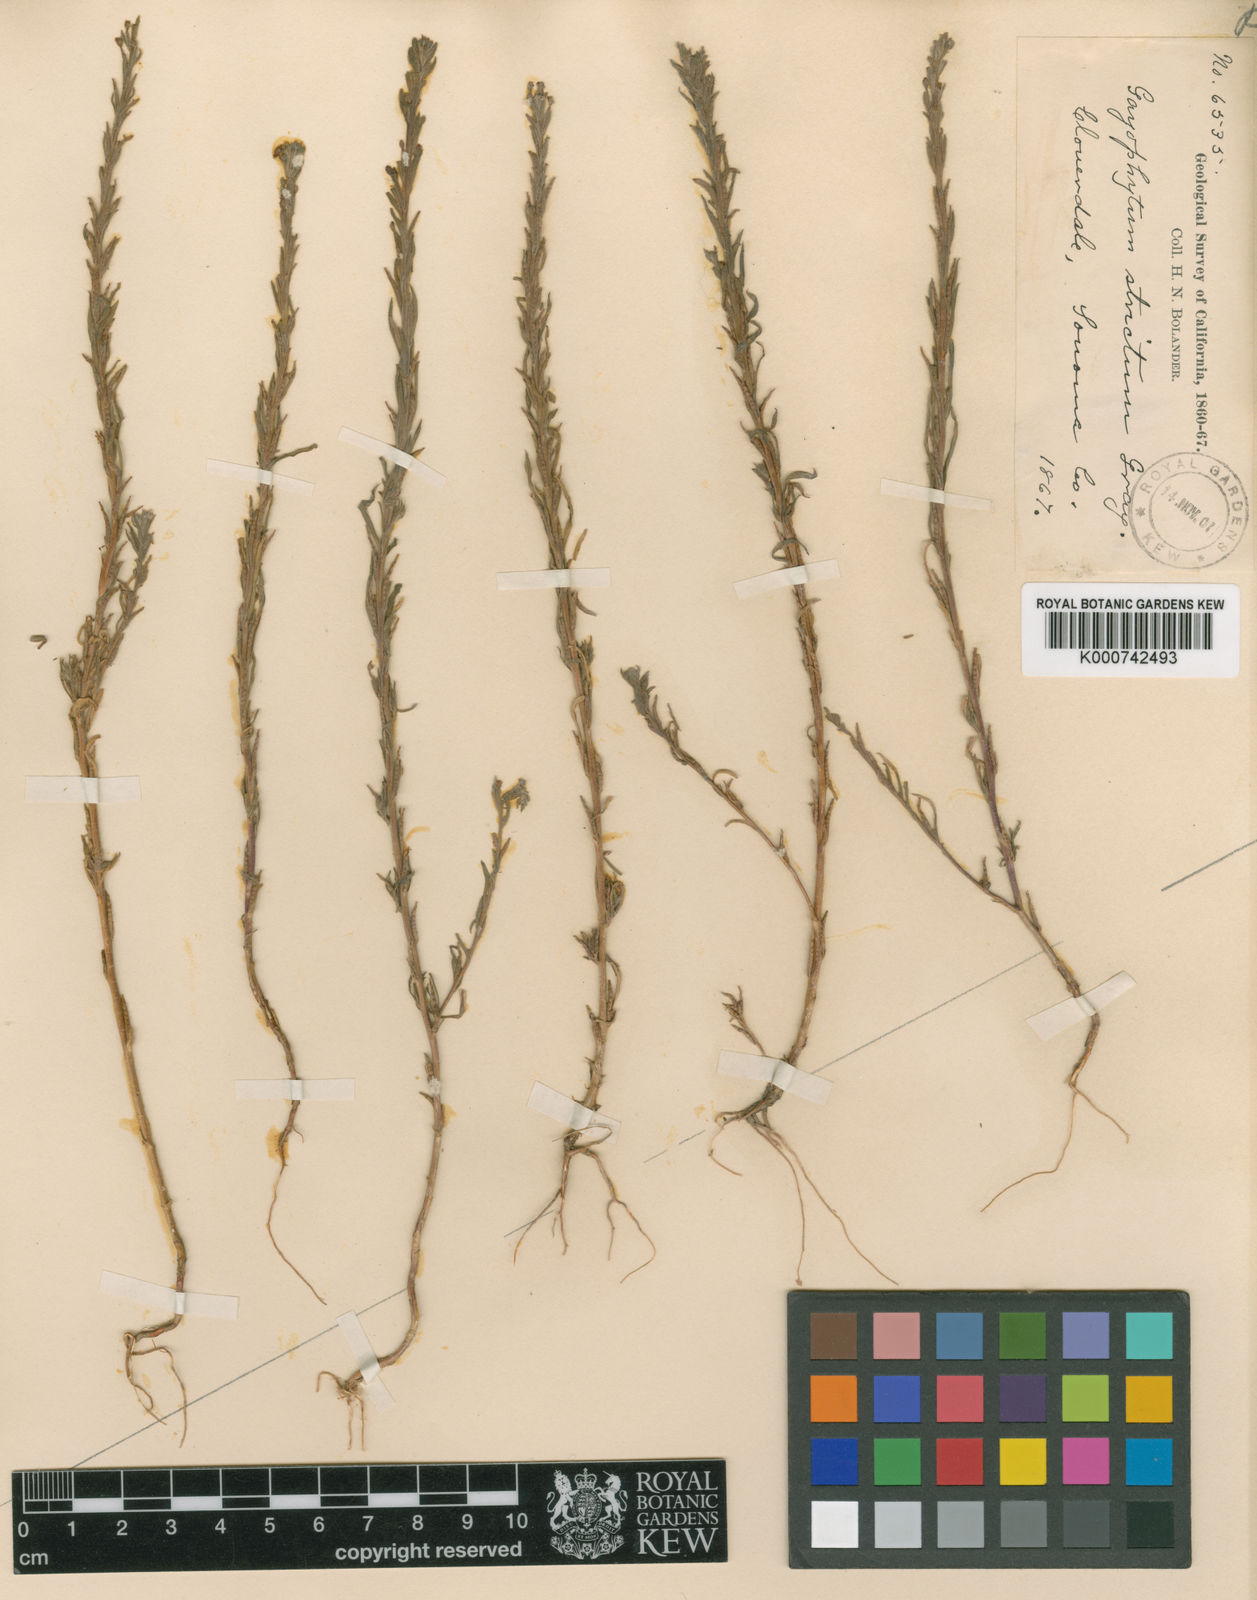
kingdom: Plantae
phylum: Tracheophyta
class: Magnoliopsida
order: Myrtales
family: Onagraceae
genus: Epilobium
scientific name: Epilobium torreyi
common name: Torrey's willowherb
